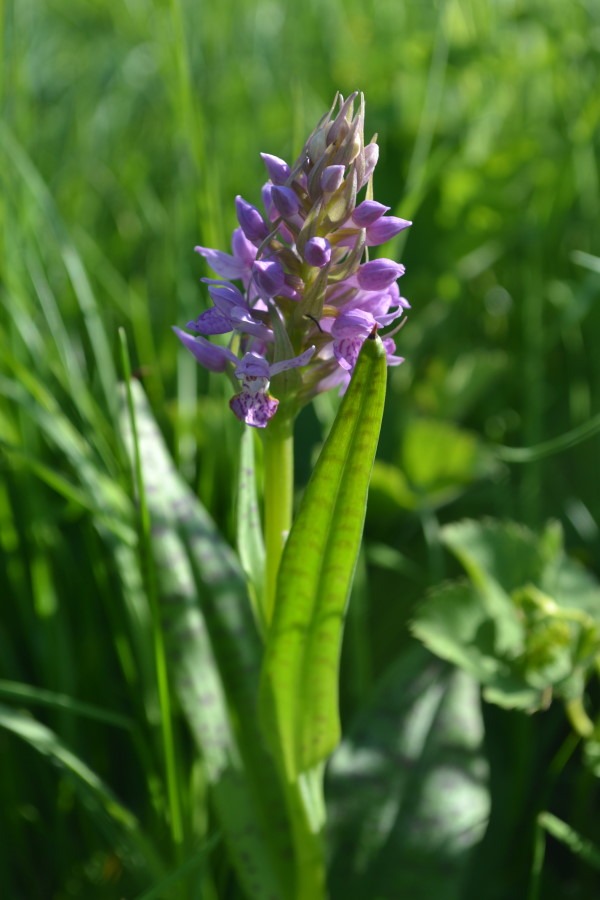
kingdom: Plantae
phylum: Tracheophyta
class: Liliopsida
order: Asparagales
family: Orchidaceae
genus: Dactylorhiza
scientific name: Dactylorhiza maculata
